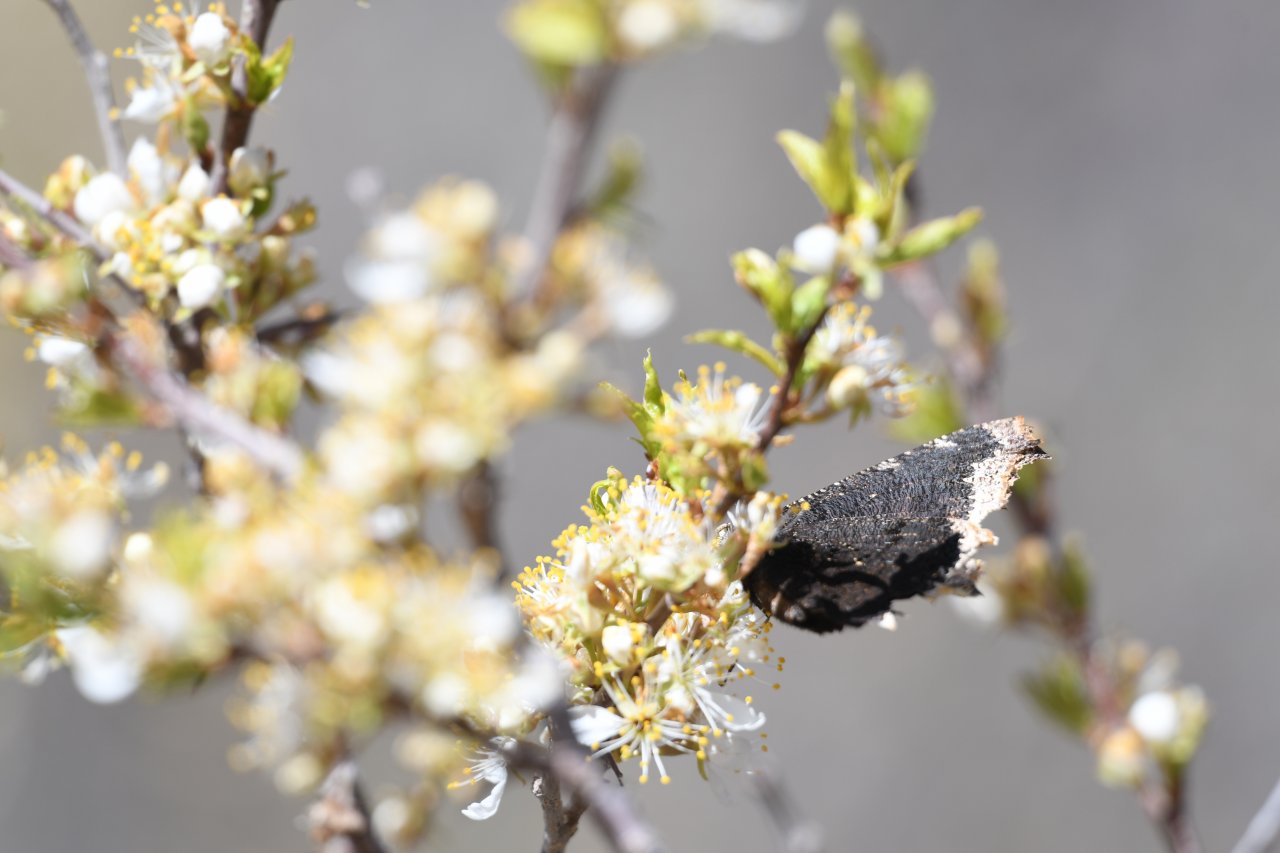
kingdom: Animalia
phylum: Arthropoda
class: Insecta
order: Lepidoptera
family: Nymphalidae
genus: Nymphalis
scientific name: Nymphalis antiopa
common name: Mourning Cloak
